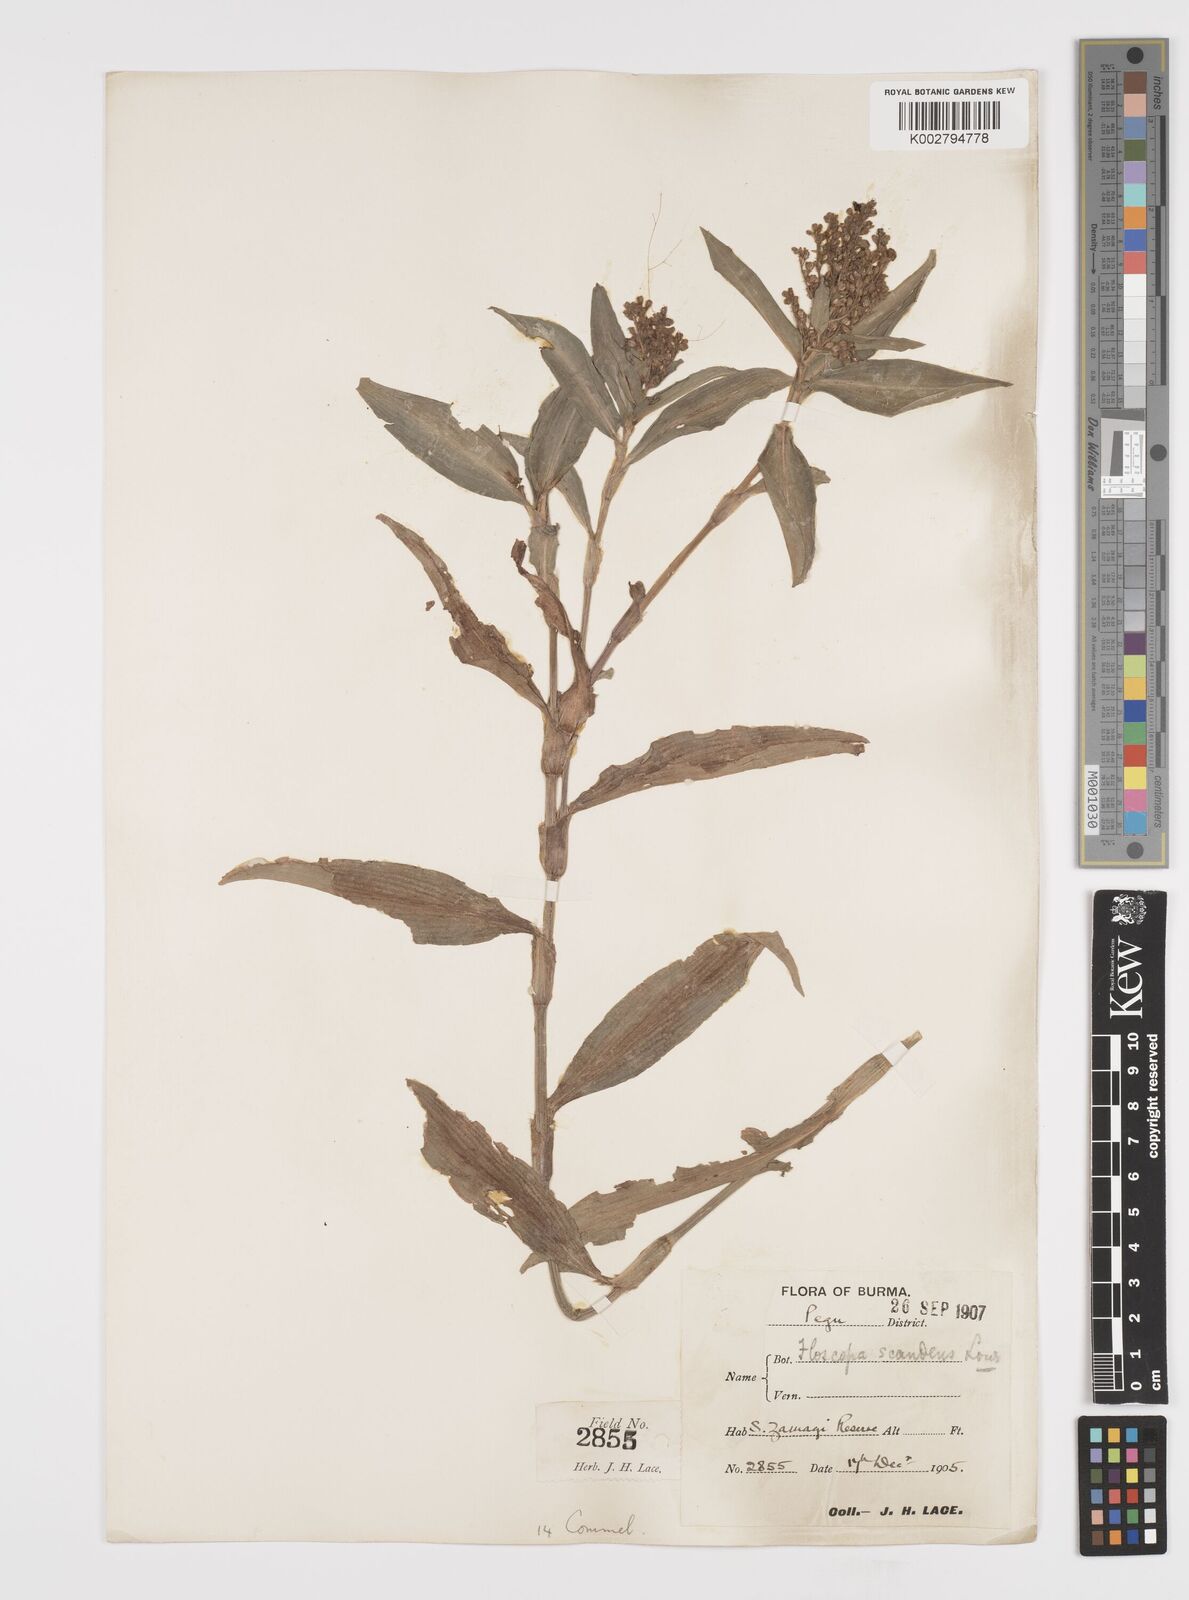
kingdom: Plantae
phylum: Tracheophyta
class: Liliopsida
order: Commelinales
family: Commelinaceae
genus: Floscopa
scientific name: Floscopa scandens
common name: Climbing flower cup
